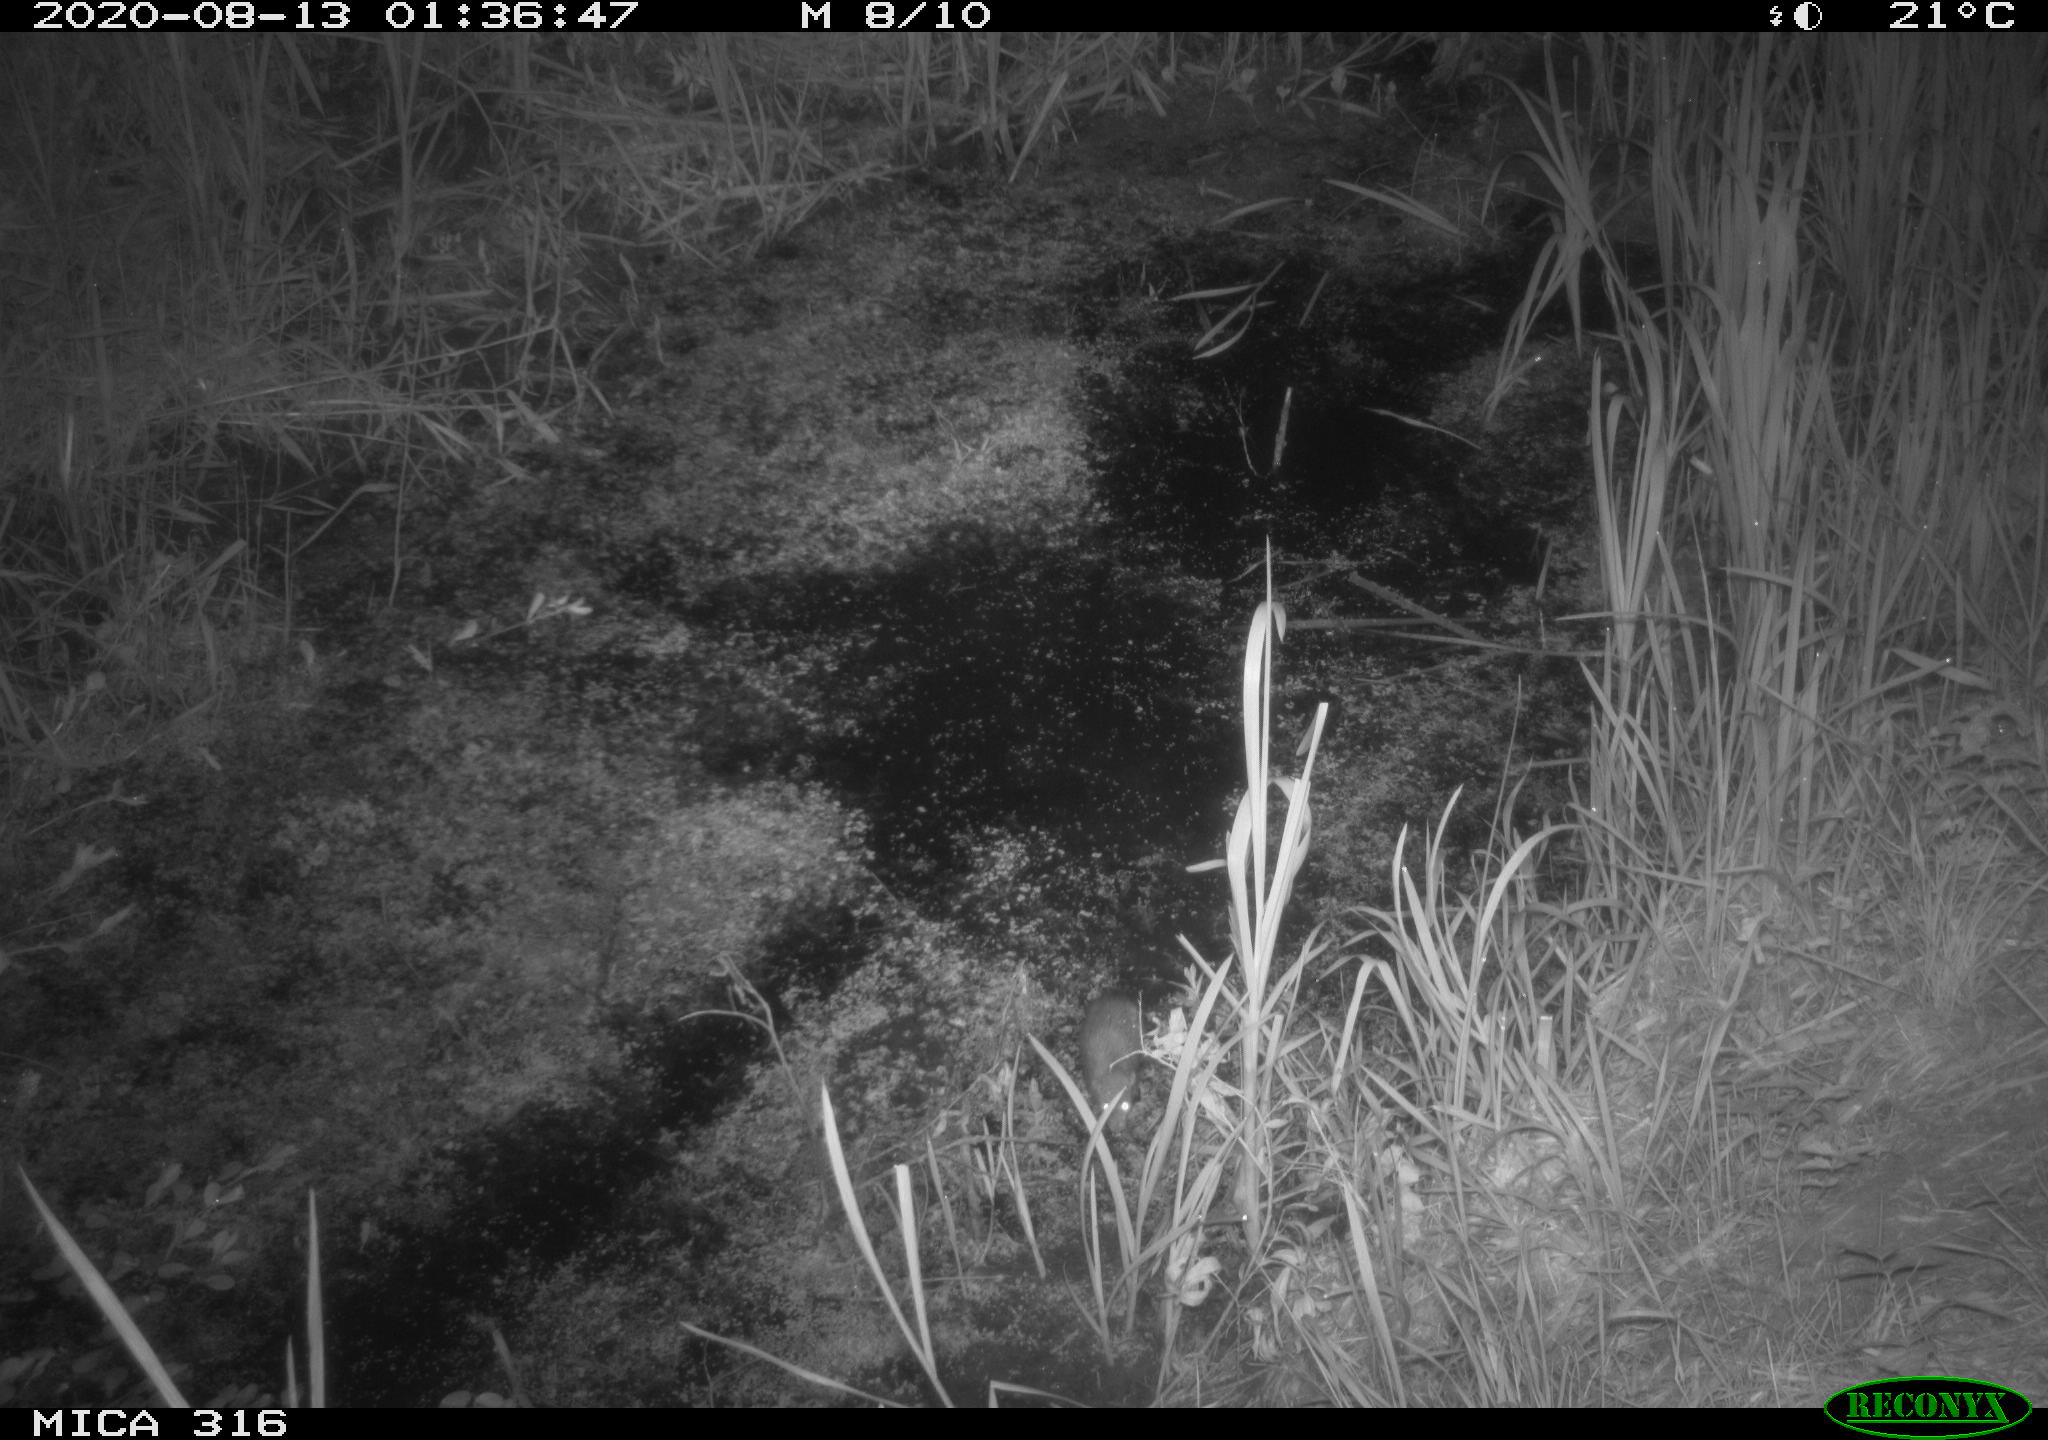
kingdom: Animalia
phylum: Chordata
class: Mammalia
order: Rodentia
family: Muridae
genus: Rattus
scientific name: Rattus norvegicus
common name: Brown rat
